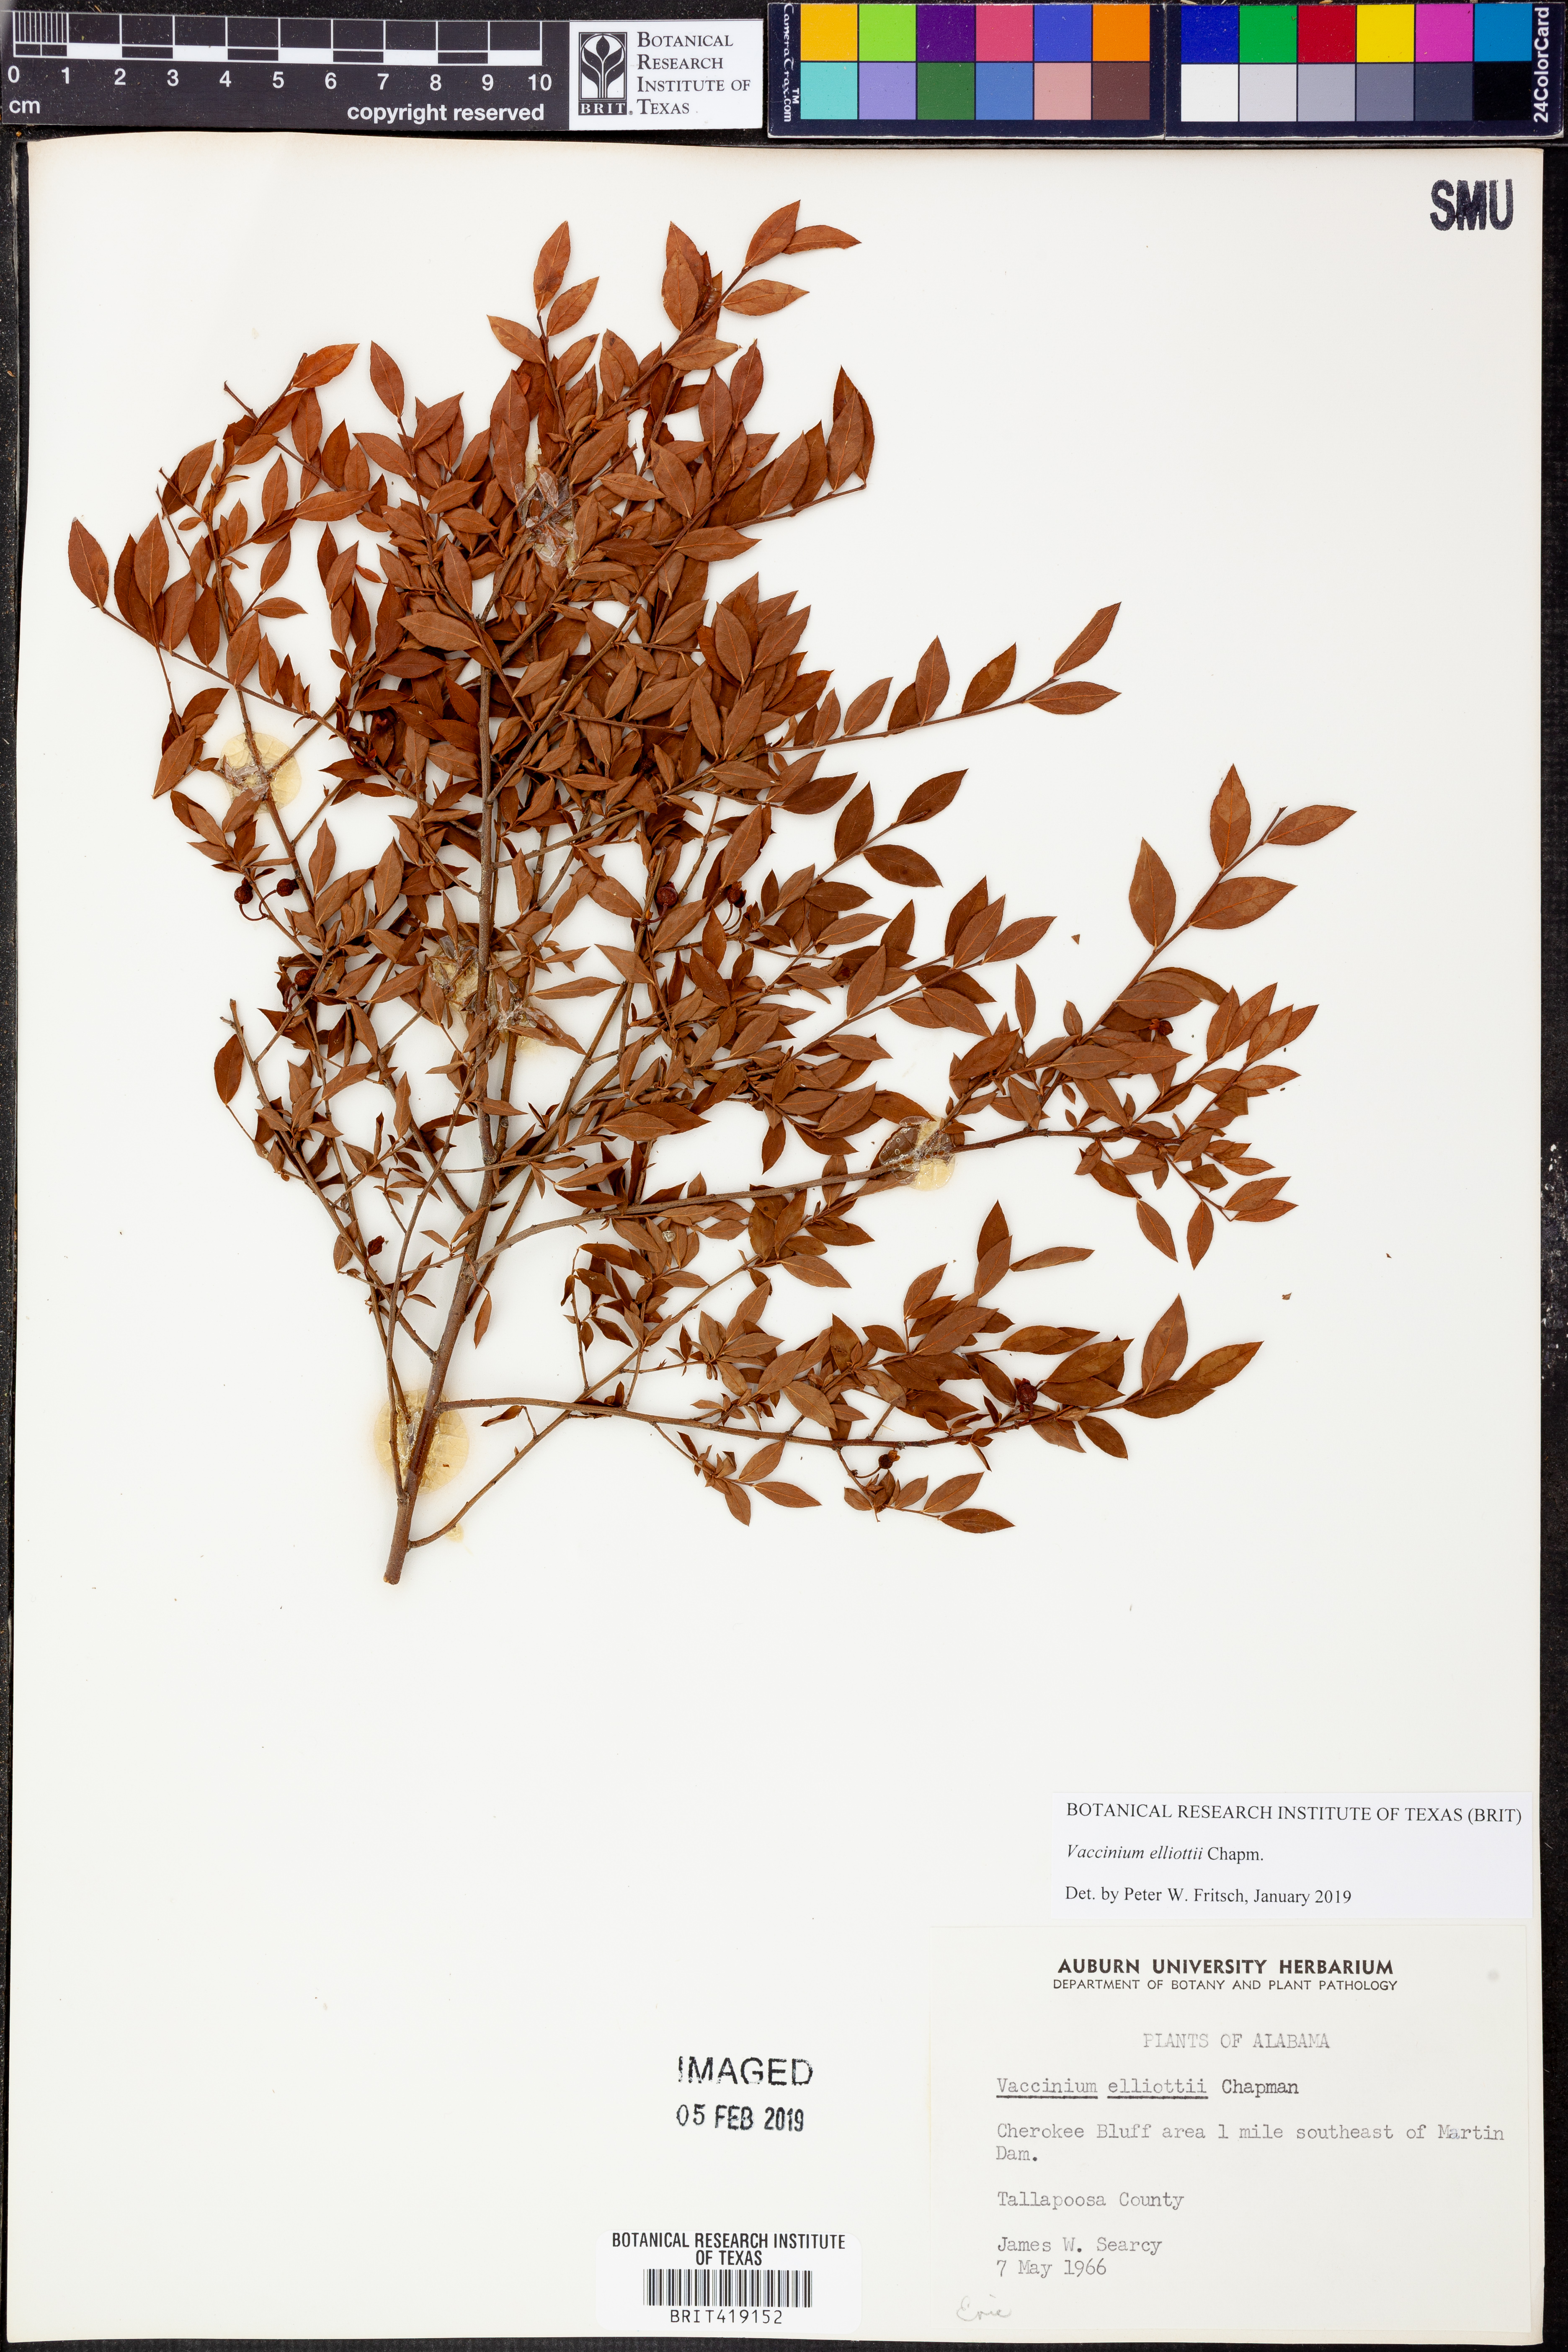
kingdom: Plantae
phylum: Tracheophyta
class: Magnoliopsida
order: Ericales
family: Ericaceae
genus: Vaccinium
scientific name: Vaccinium corymbosum
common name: Blueberry
